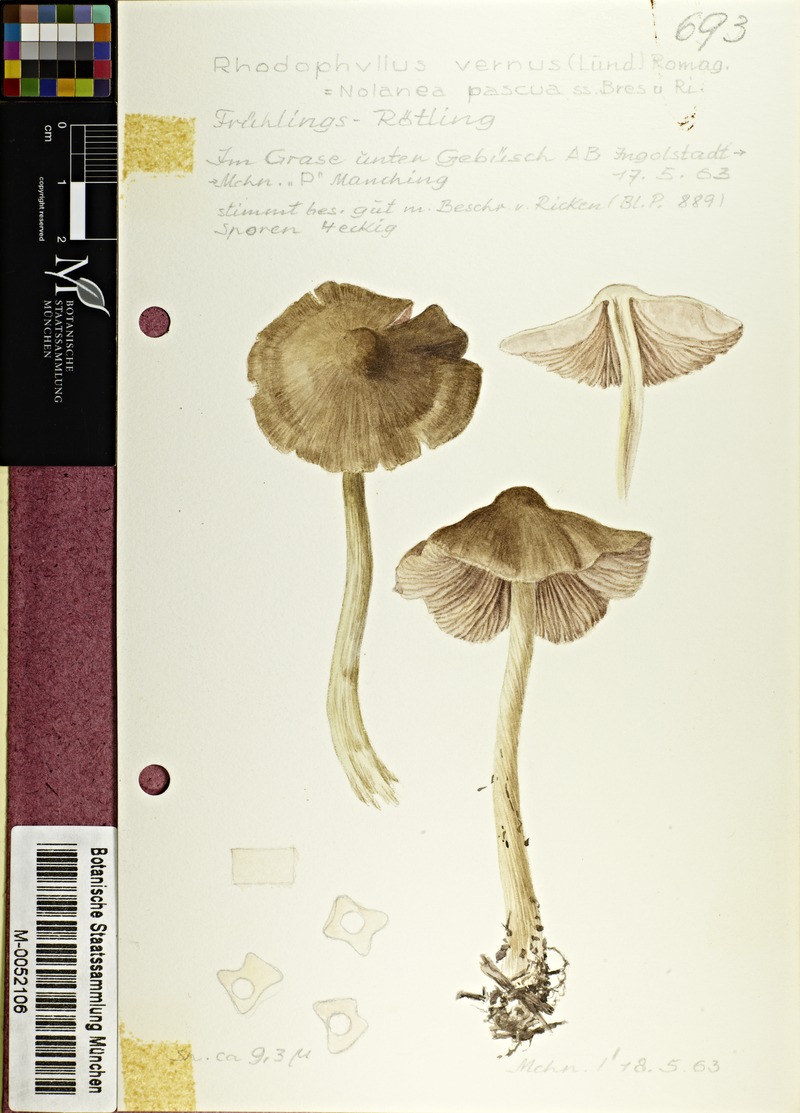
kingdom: Fungi
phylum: Basidiomycota
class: Agaricomycetes
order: Agaricales
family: Entolomataceae
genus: Entoloma
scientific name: Entoloma vernum
